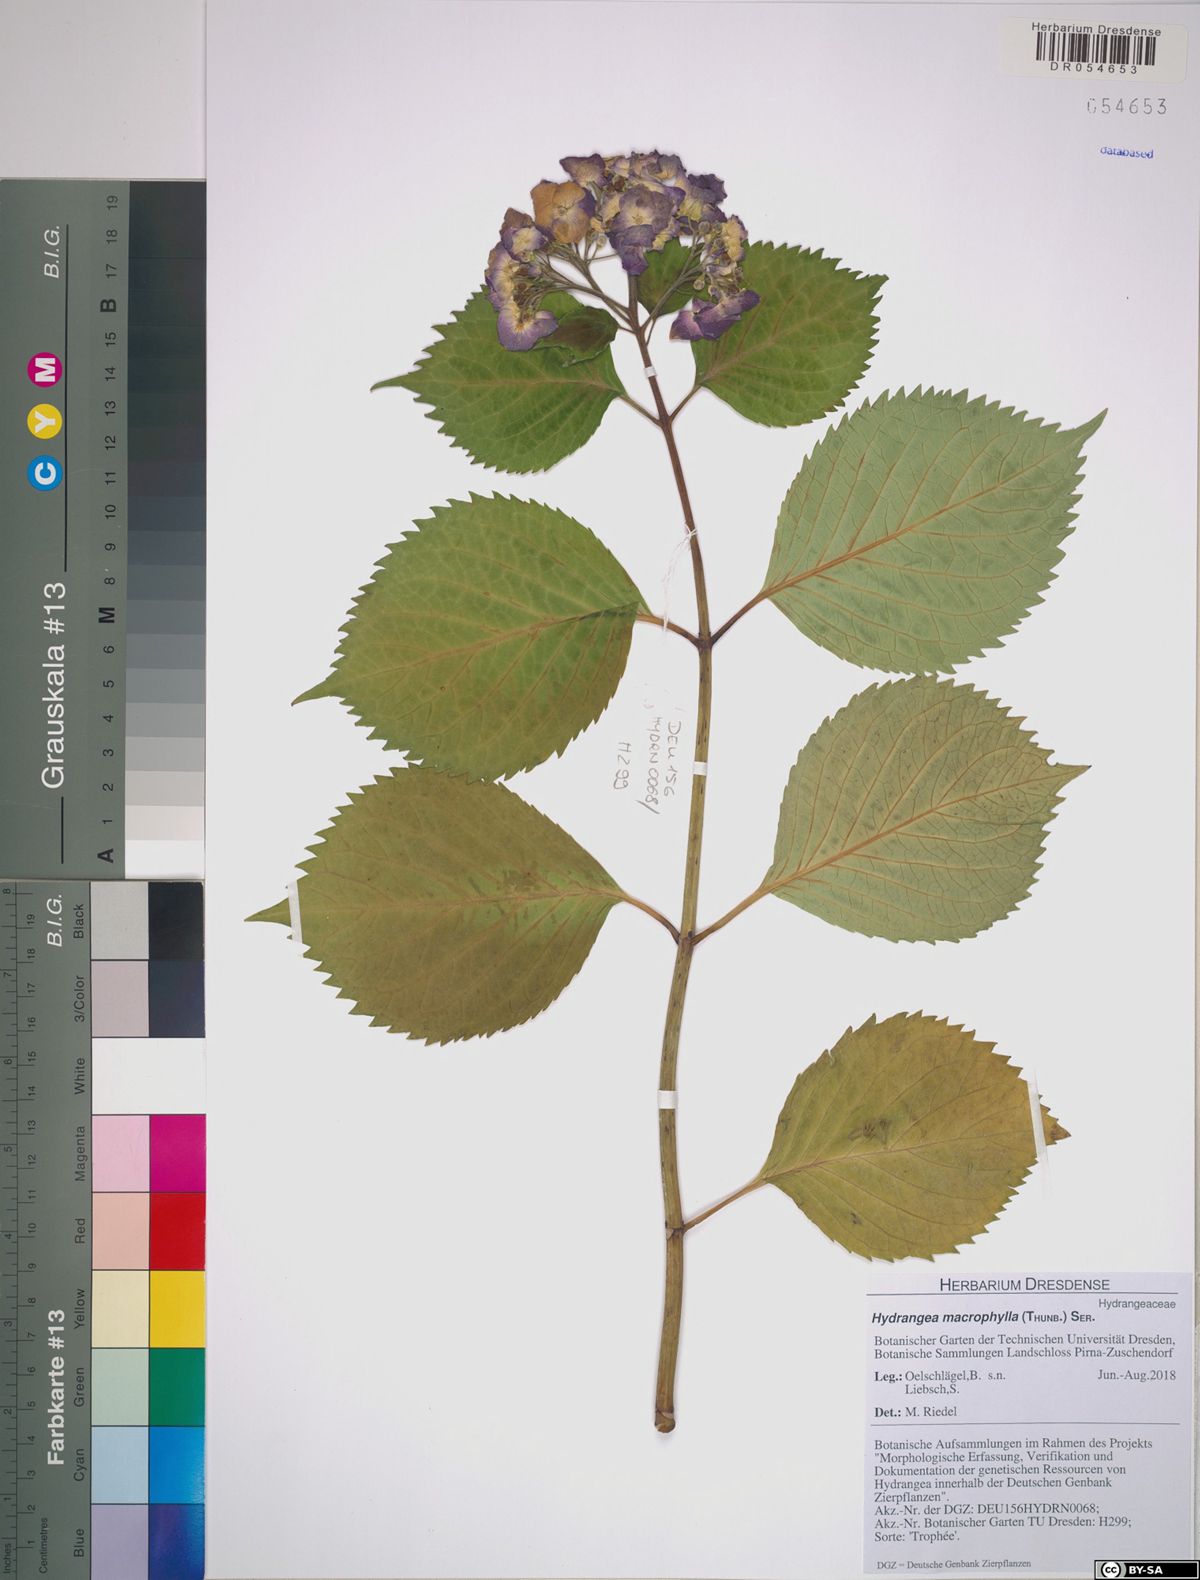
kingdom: Plantae
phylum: Tracheophyta
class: Magnoliopsida
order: Cornales
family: Hydrangeaceae
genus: Hydrangea
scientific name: Hydrangea macrophylla
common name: Hydrangea
